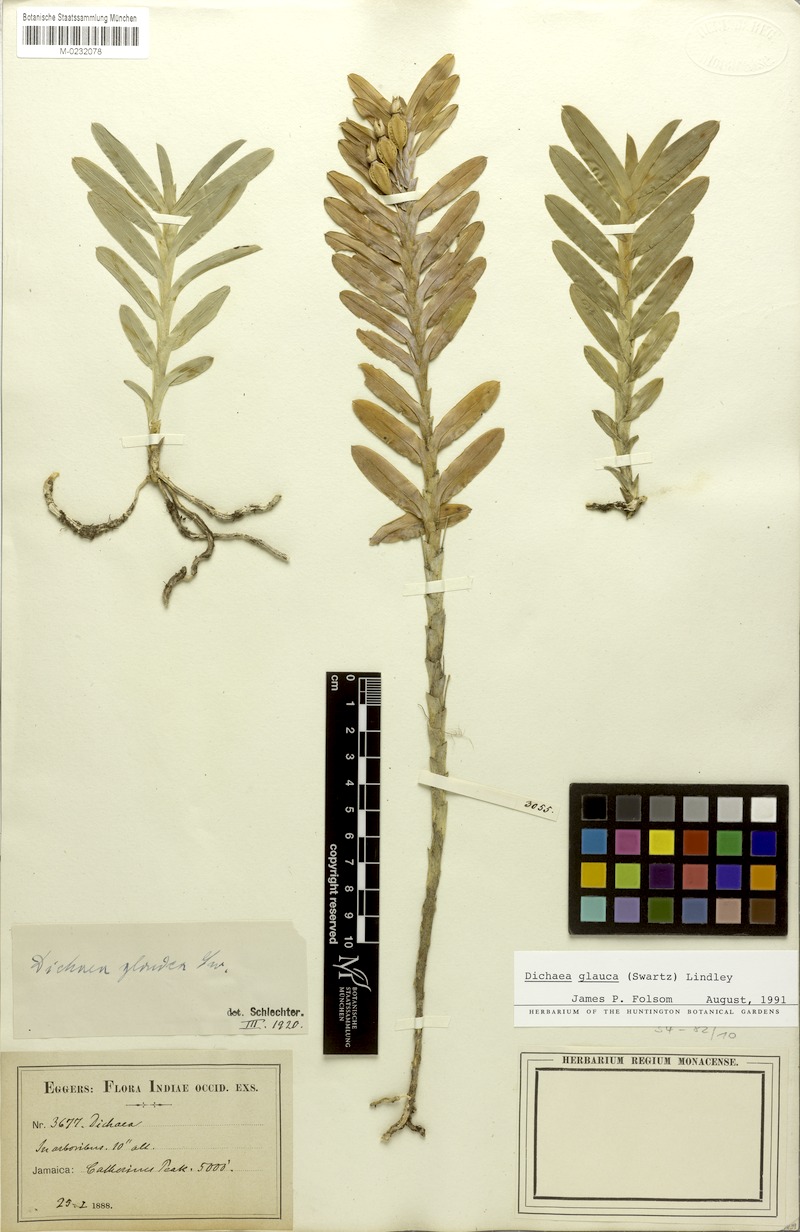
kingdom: Plantae
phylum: Tracheophyta
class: Liliopsida
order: Asparagales
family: Orchidaceae
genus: Dichaea
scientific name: Dichaea glauca
